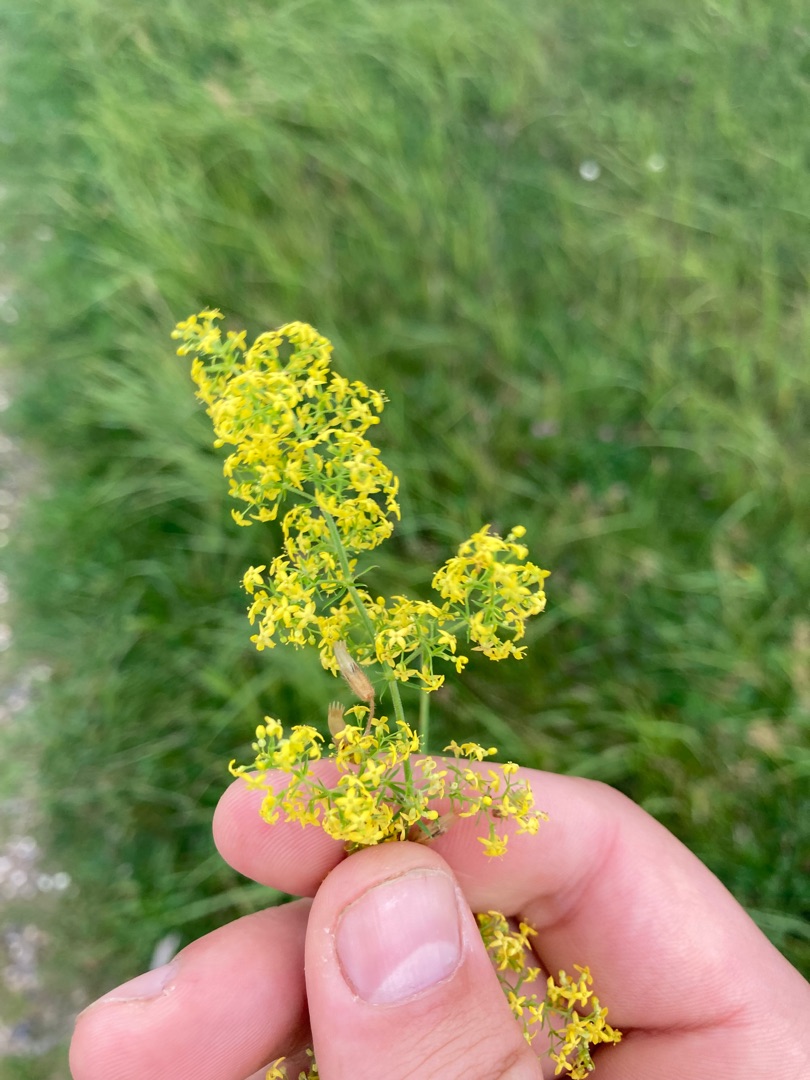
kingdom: Plantae
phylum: Tracheophyta
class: Magnoliopsida
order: Gentianales
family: Rubiaceae
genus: Galium
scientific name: Galium verum
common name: Gul snerre
